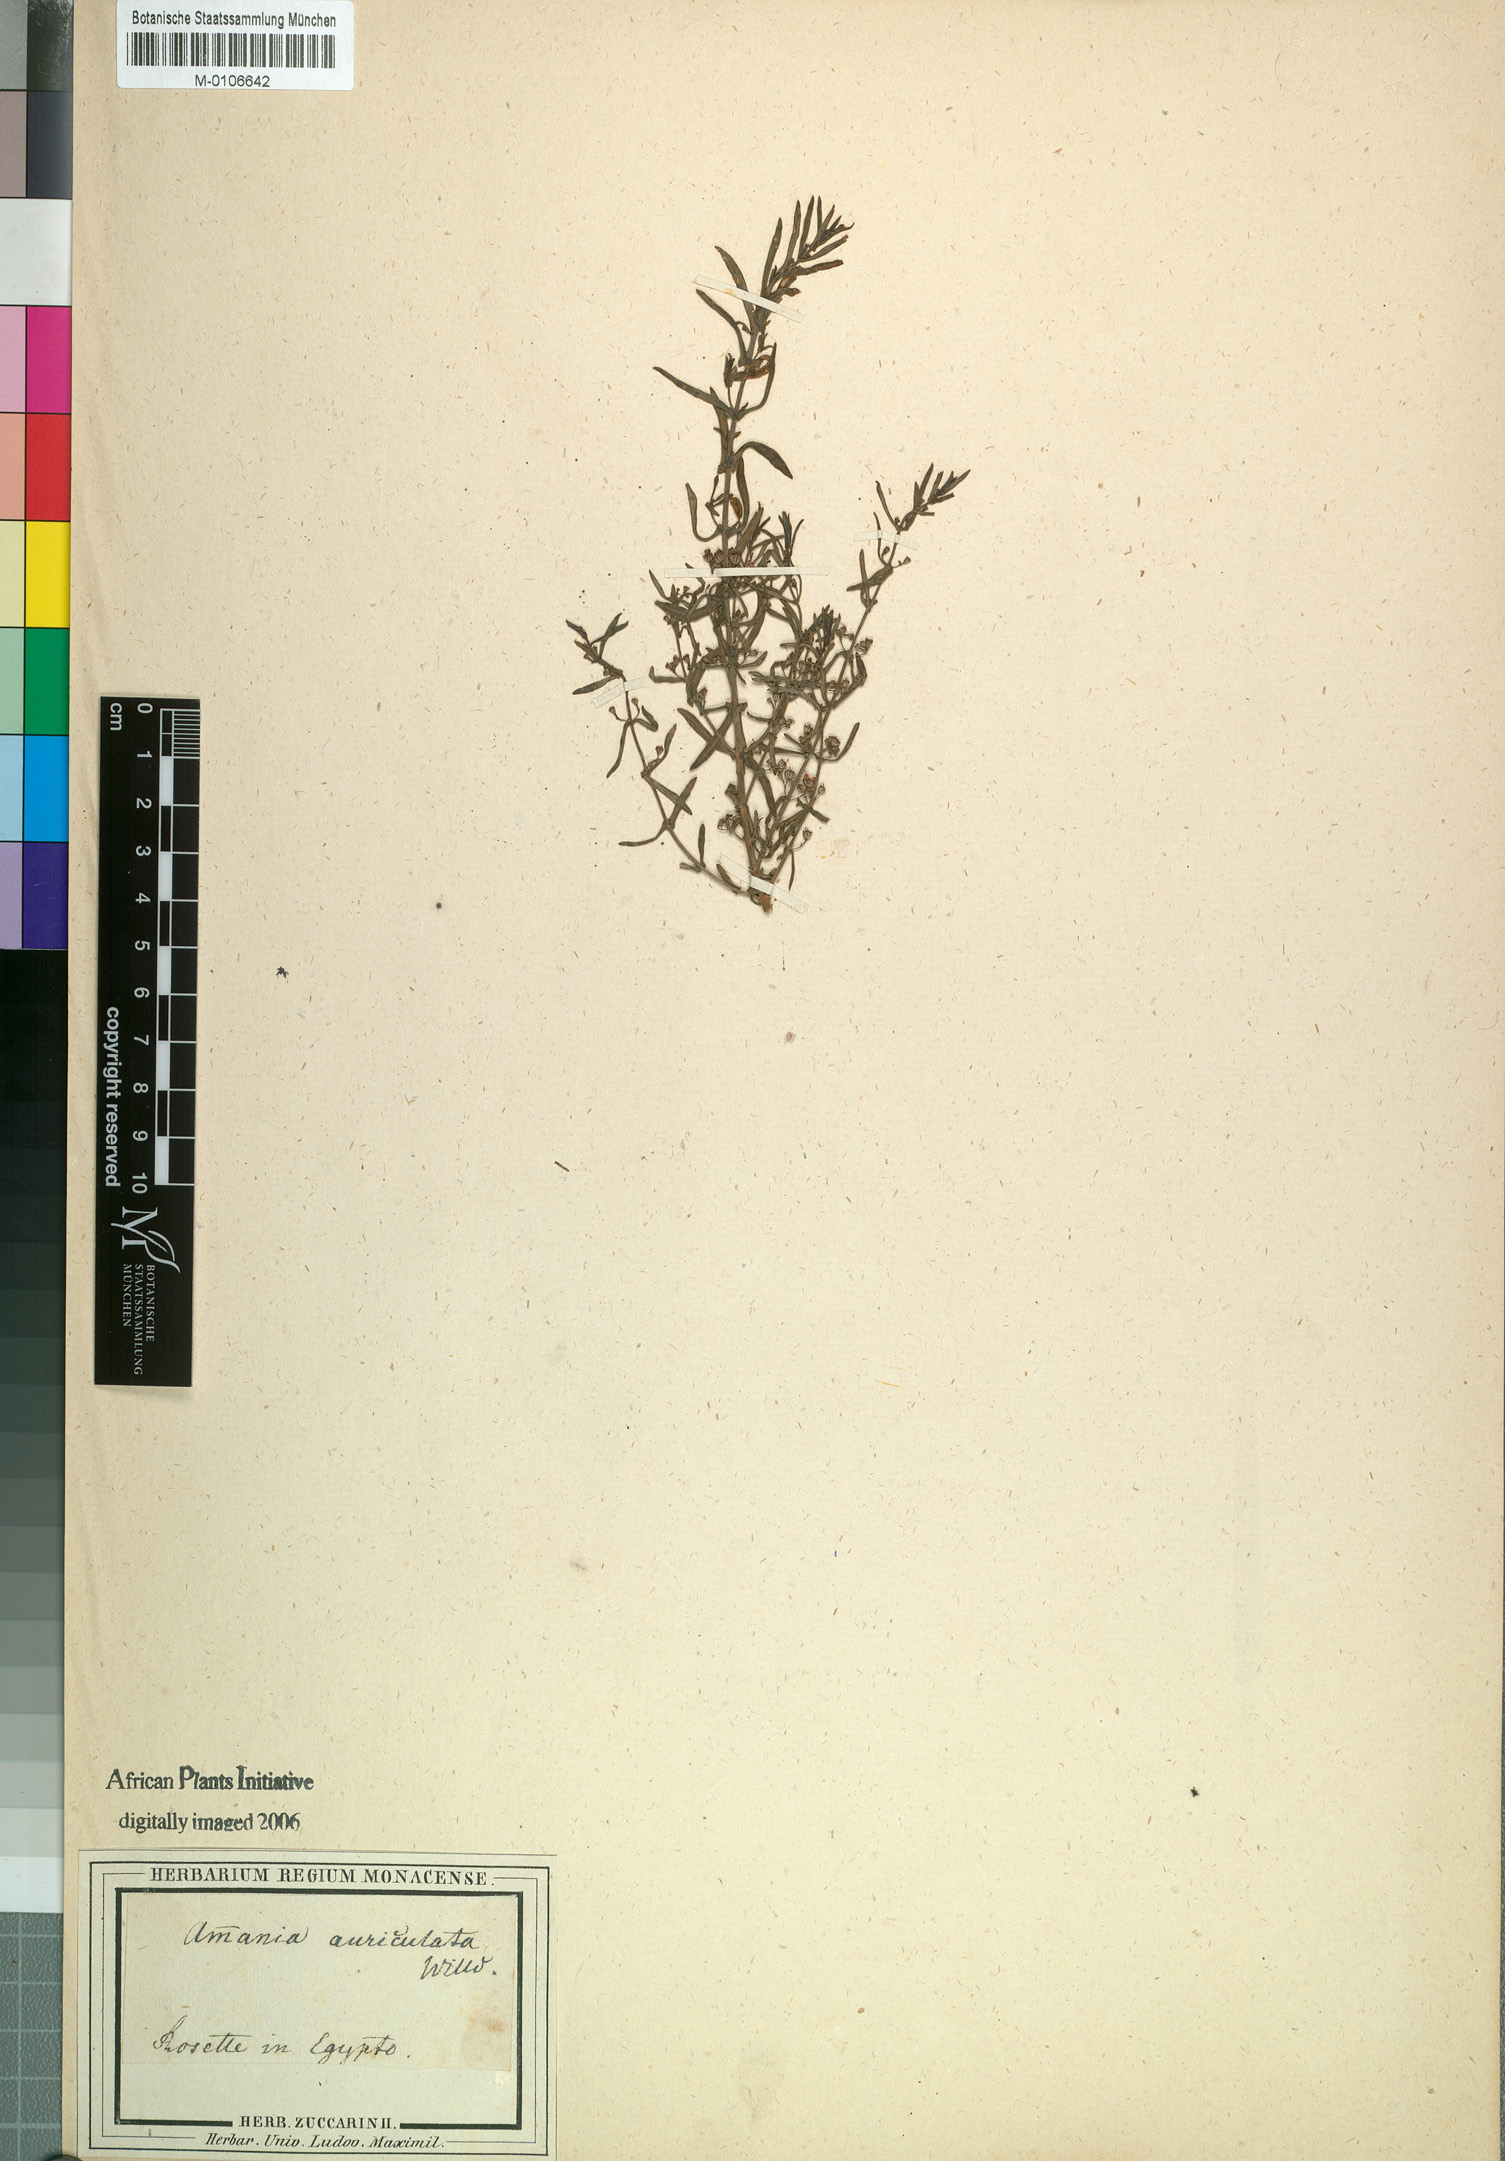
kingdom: Plantae
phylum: Tracheophyta
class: Magnoliopsida
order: Myrtales
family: Lythraceae
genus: Ammannia
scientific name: Ammannia auriculata
